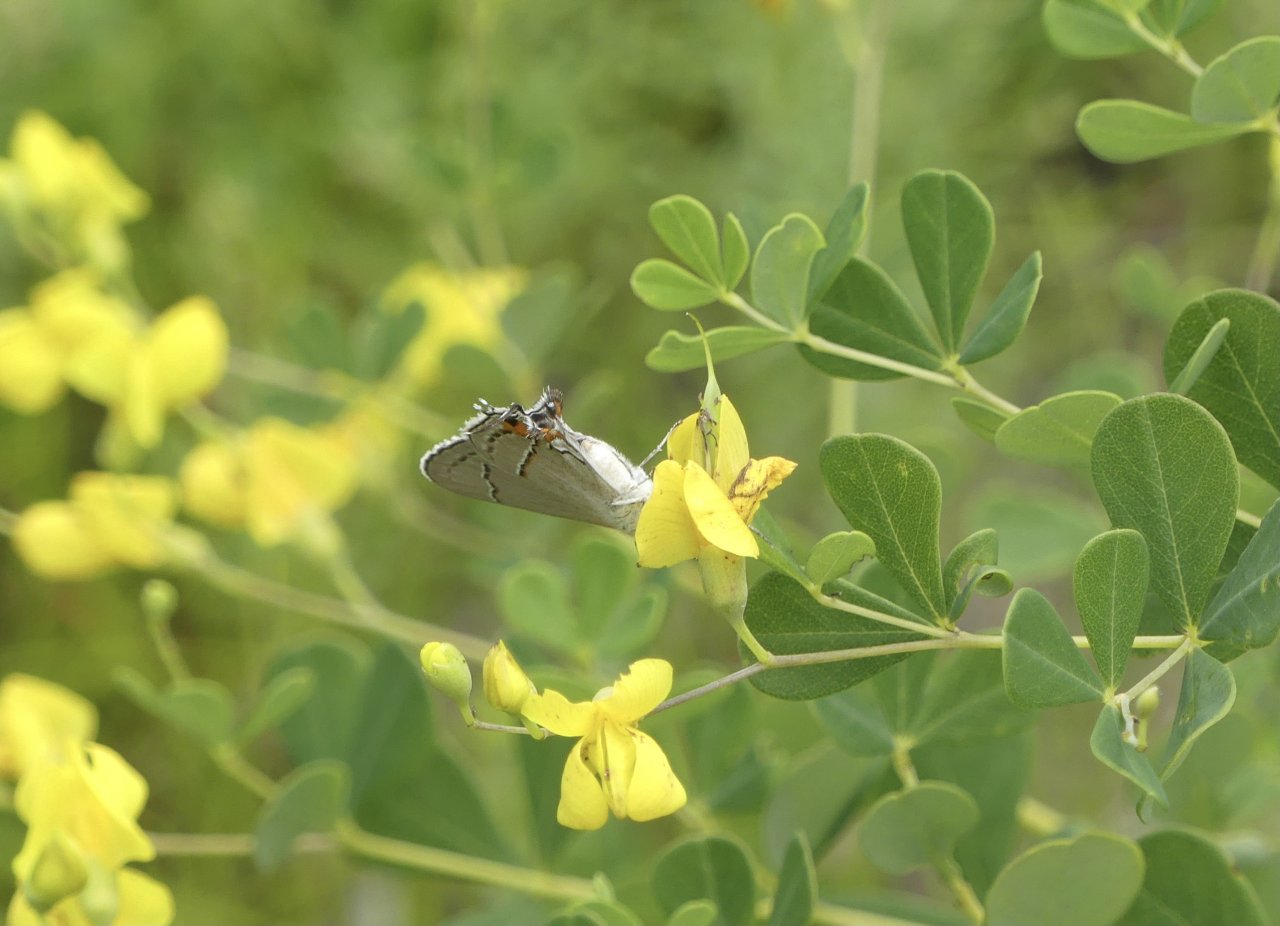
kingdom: Animalia
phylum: Arthropoda
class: Insecta
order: Lepidoptera
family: Lycaenidae
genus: Strymon
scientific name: Strymon melinus
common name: Gray Hairstreak
